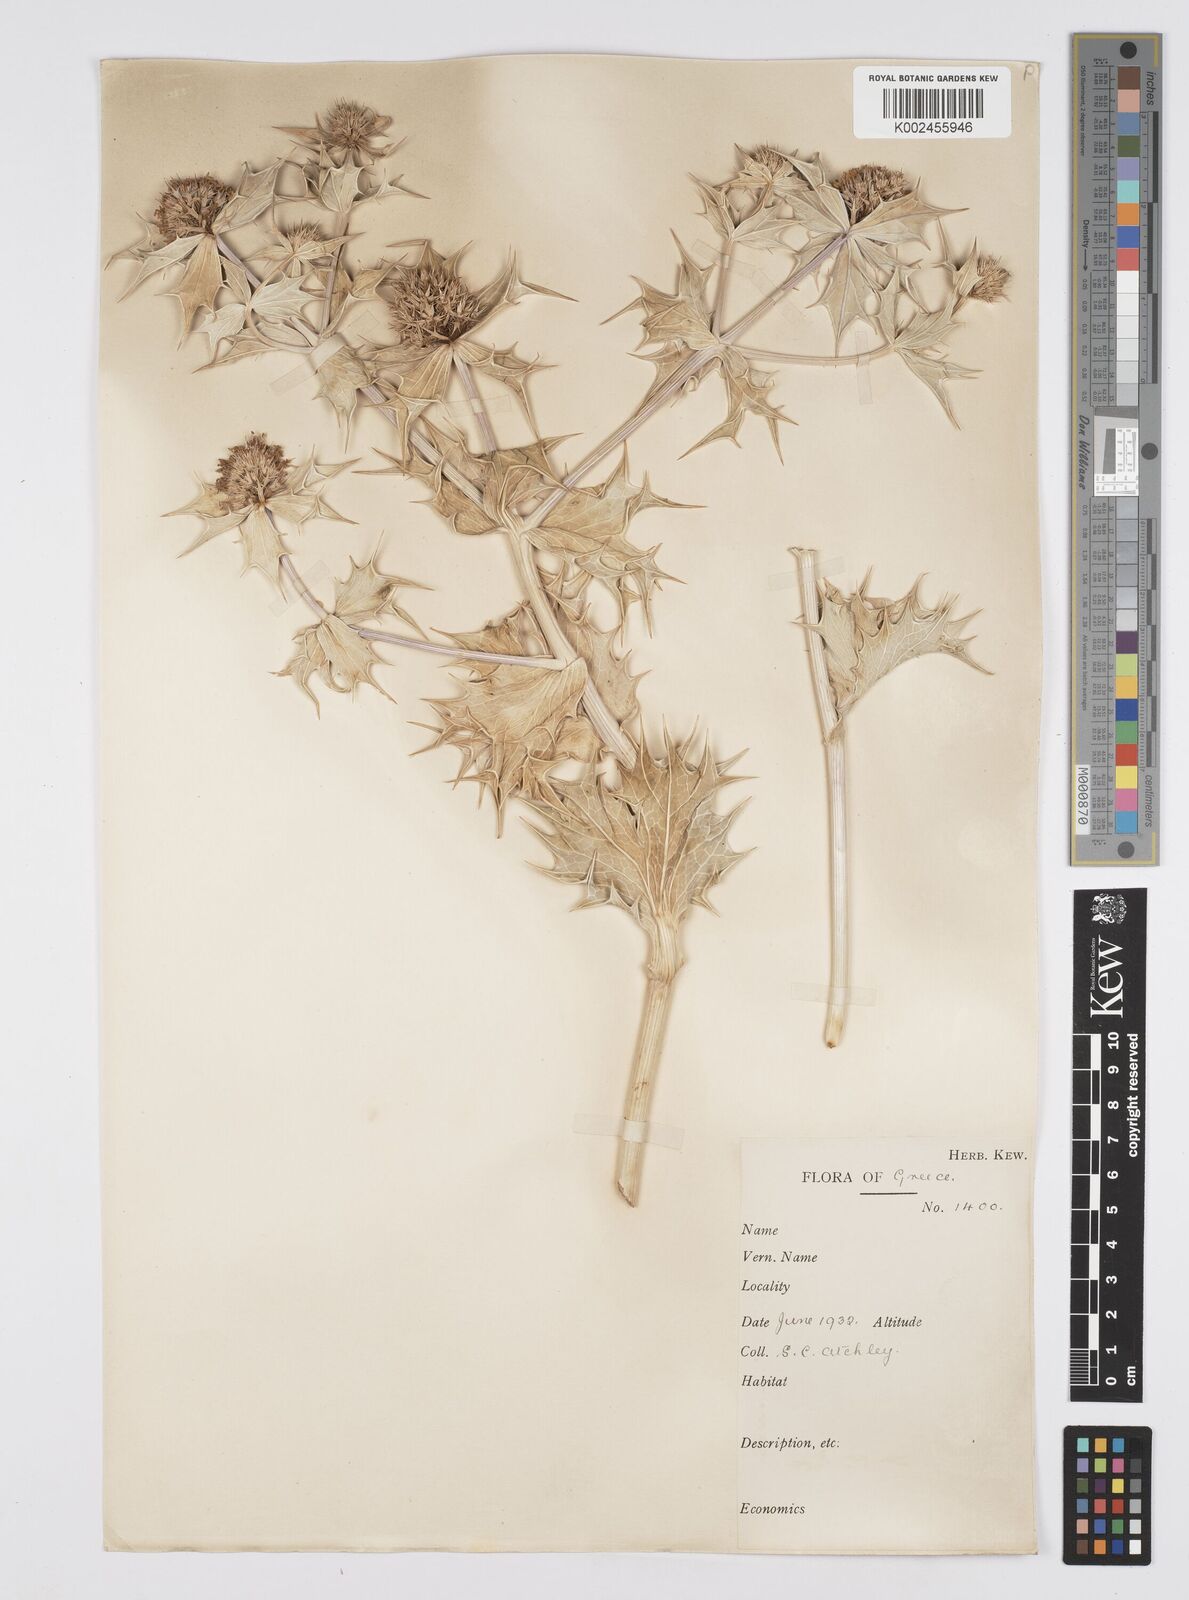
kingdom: Plantae
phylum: Tracheophyta
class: Magnoliopsida
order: Apiales
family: Apiaceae
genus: Eryngium
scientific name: Eryngium maritimum
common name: Sea-holly
